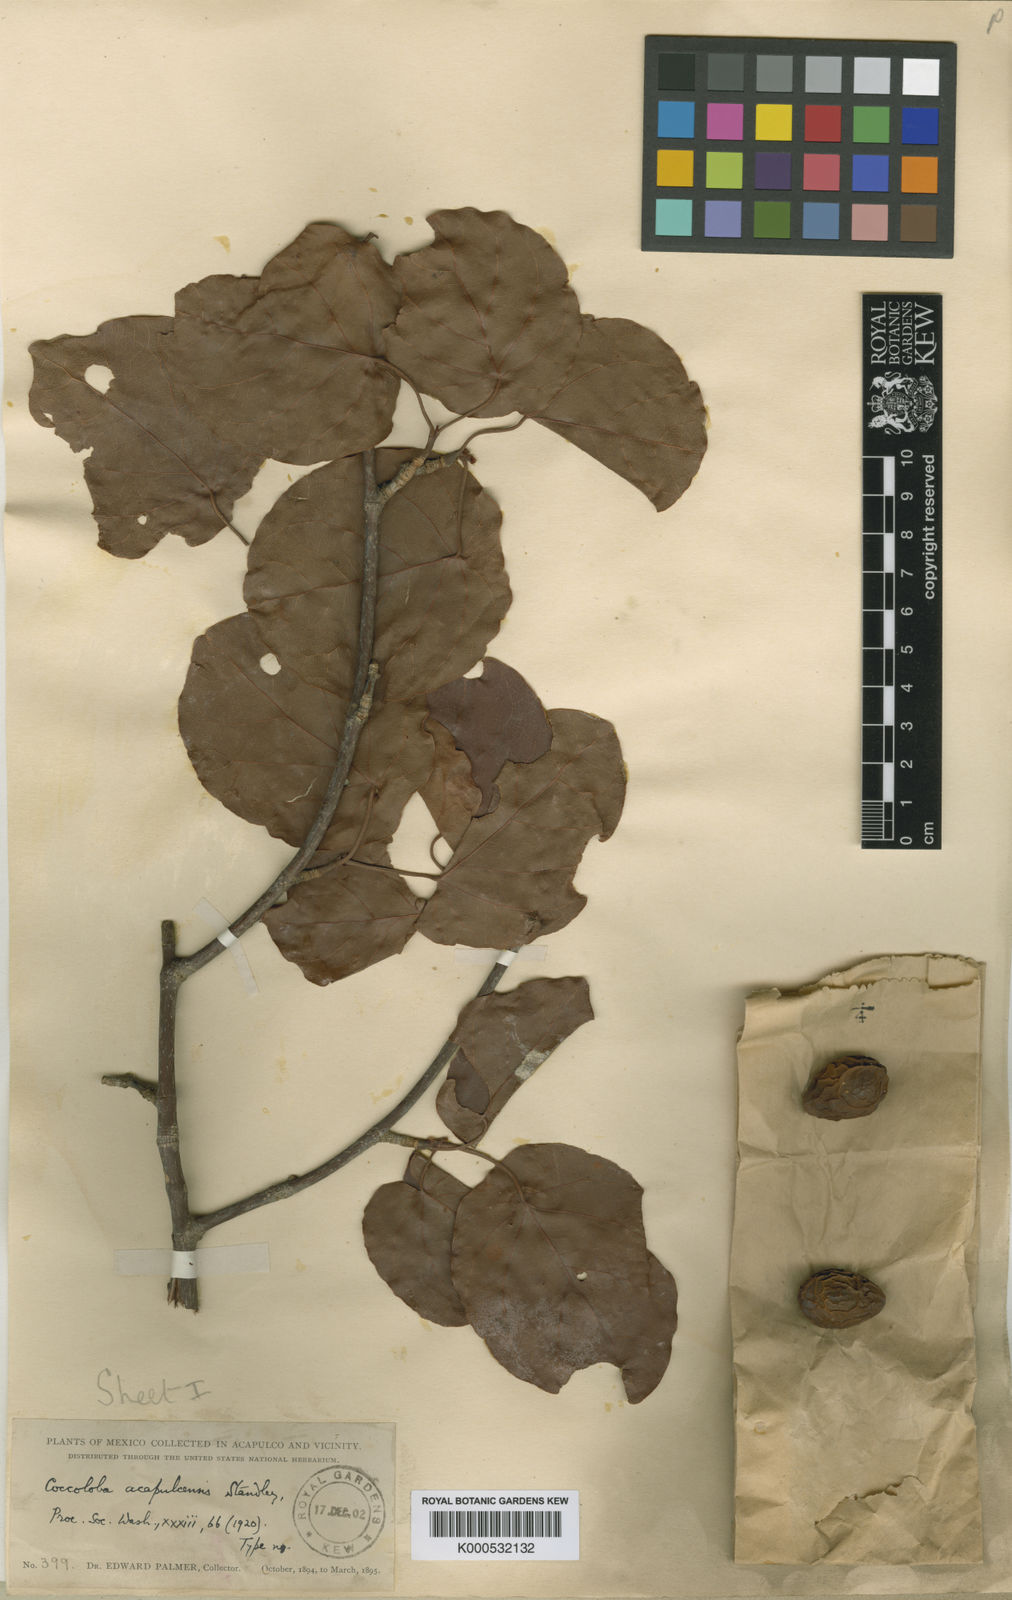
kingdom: Plantae
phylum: Tracheophyta
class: Magnoliopsida
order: Caryophyllales
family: Polygonaceae
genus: Coccoloba
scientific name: Coccoloba acapulcensis
